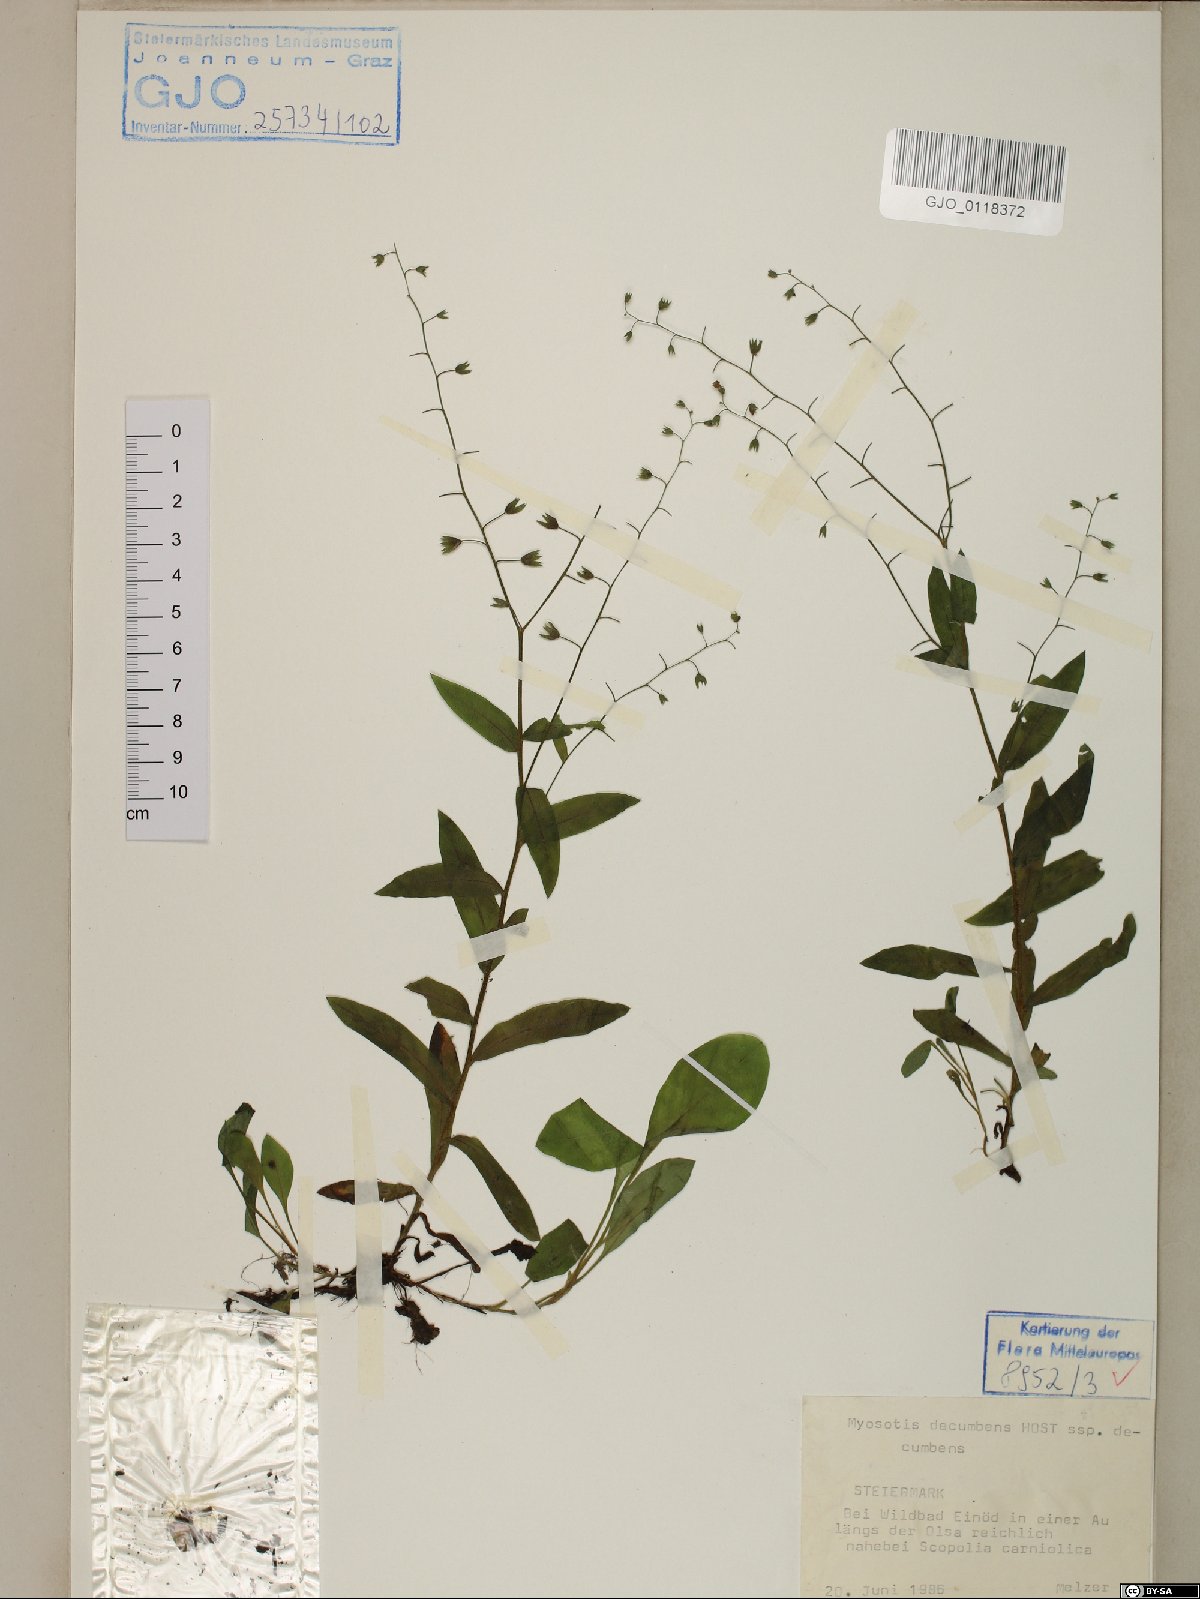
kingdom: Plantae
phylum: Tracheophyta
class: Magnoliopsida
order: Boraginales
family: Boraginaceae
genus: Myosotis
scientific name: Myosotis decumbens
